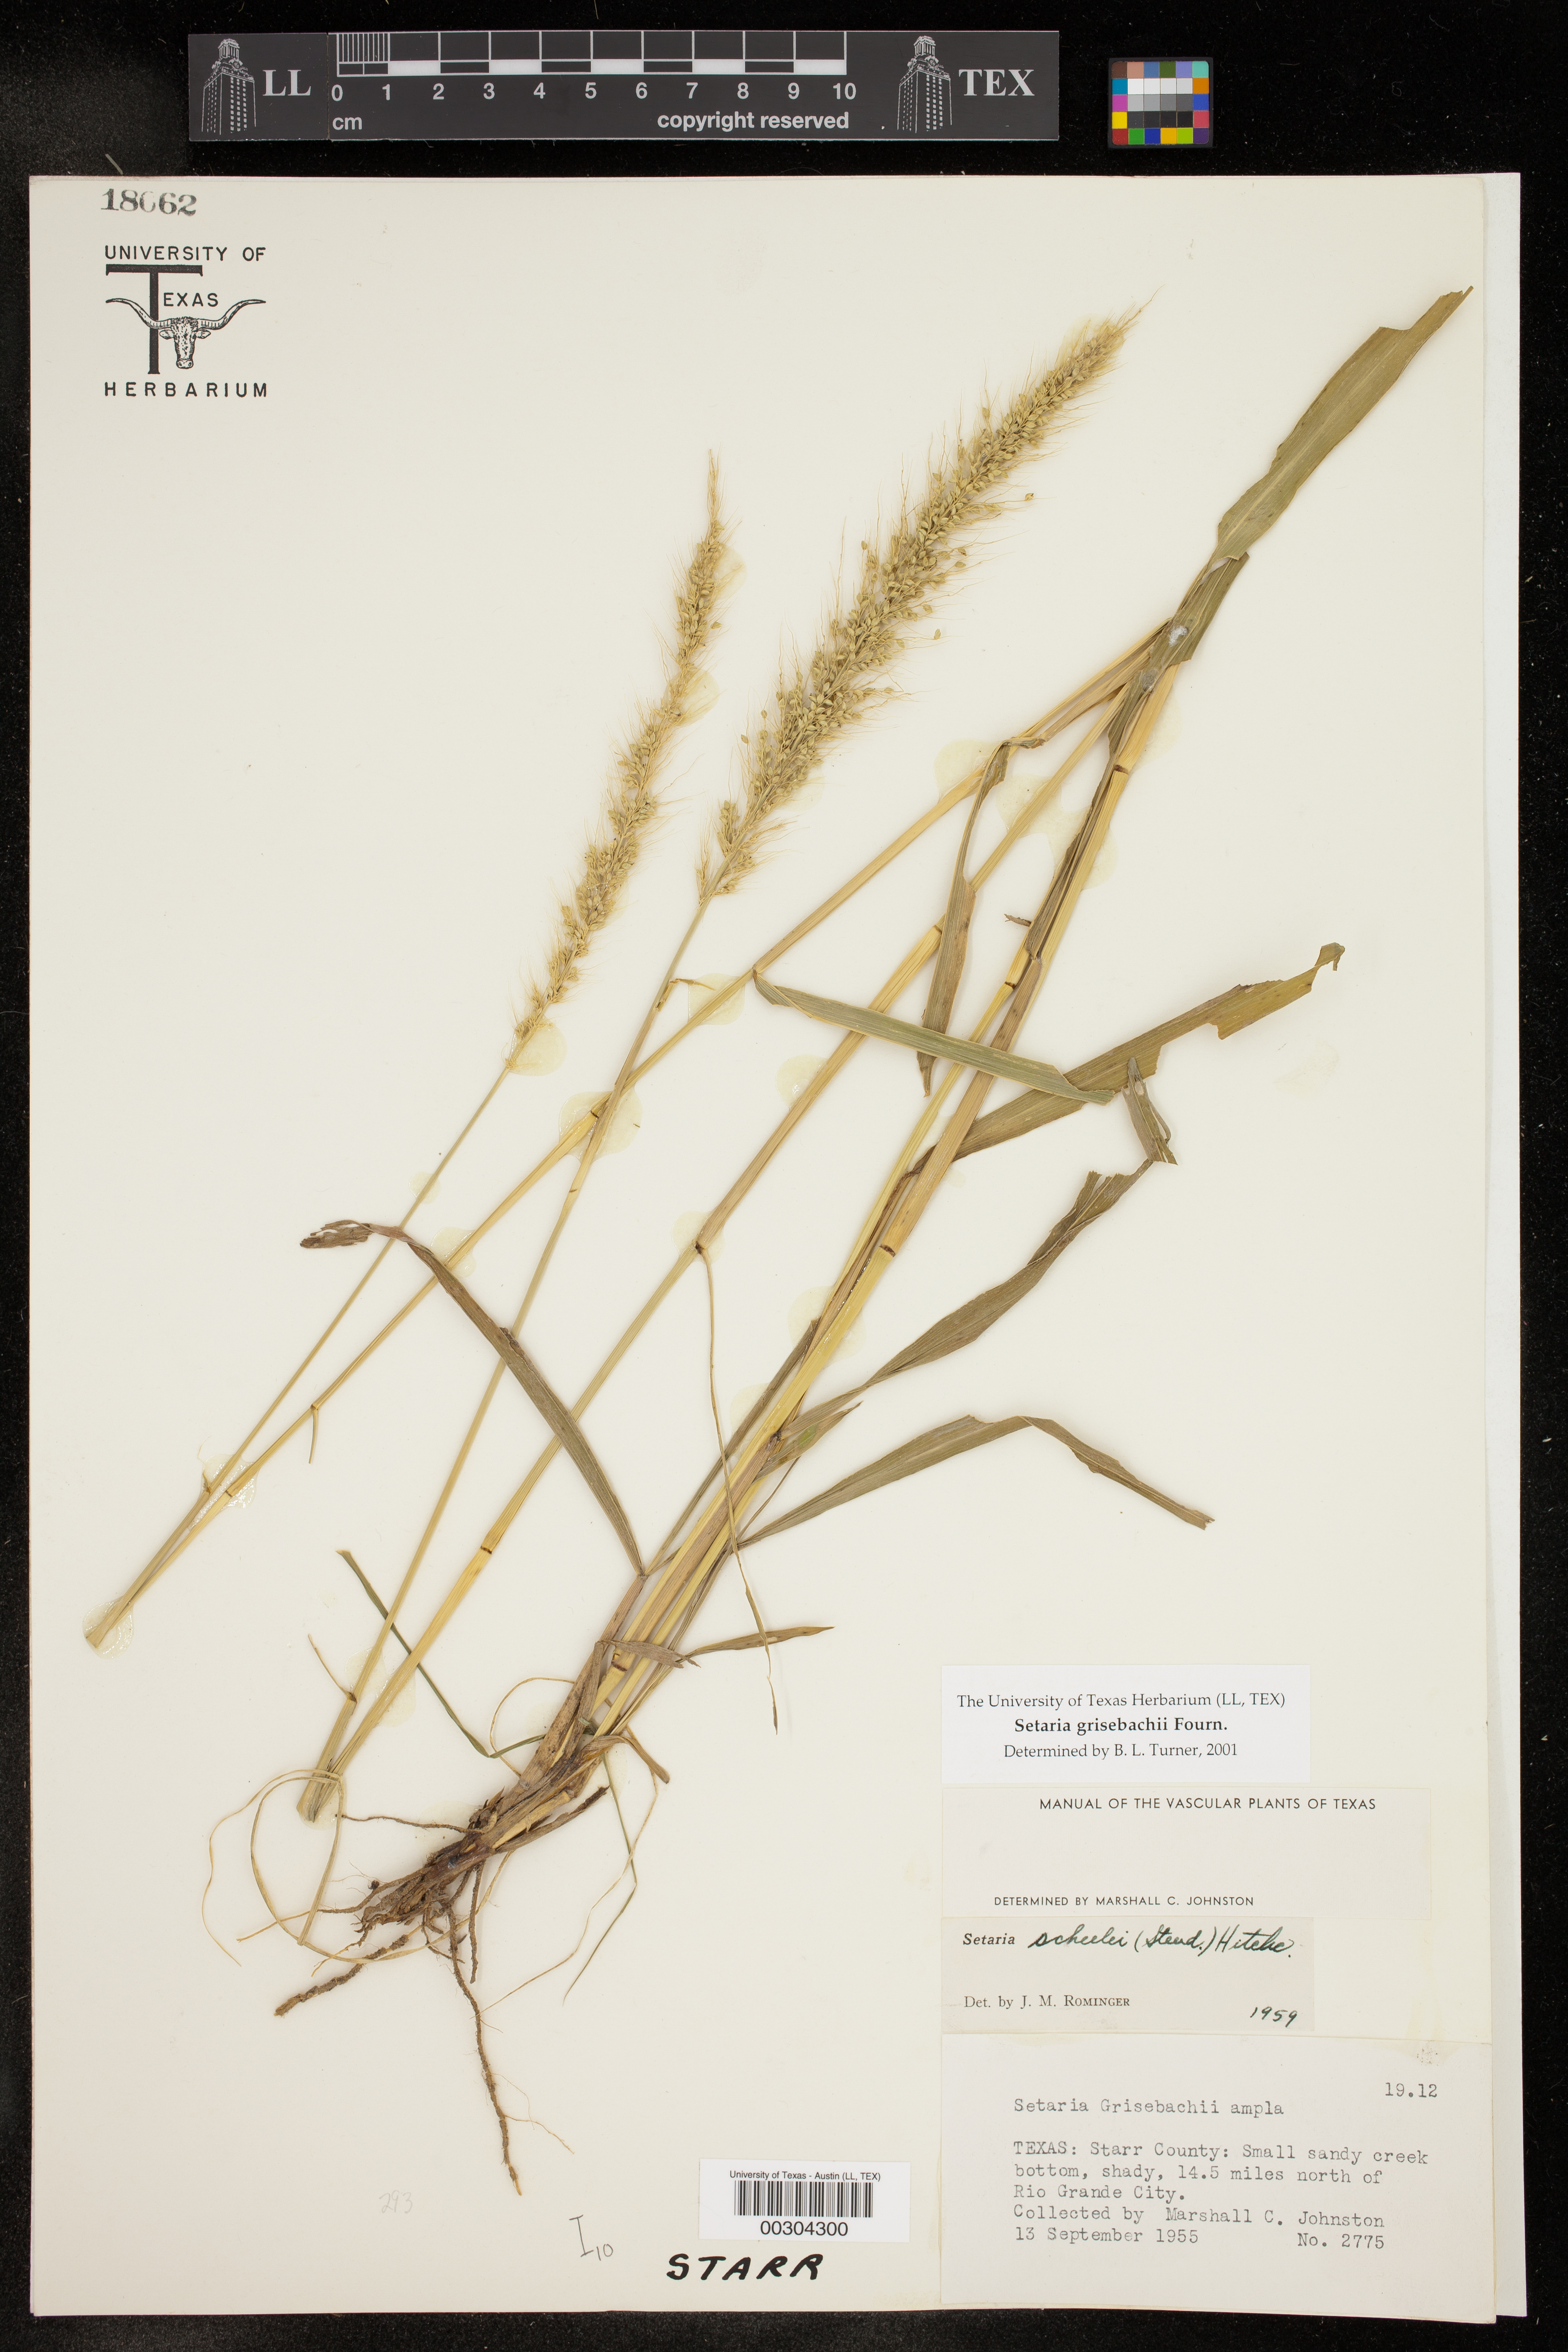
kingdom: Plantae
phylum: Tracheophyta
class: Liliopsida
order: Poales
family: Poaceae
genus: Setaria
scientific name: Setaria grisebachii
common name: Grisebach's bristle grass
